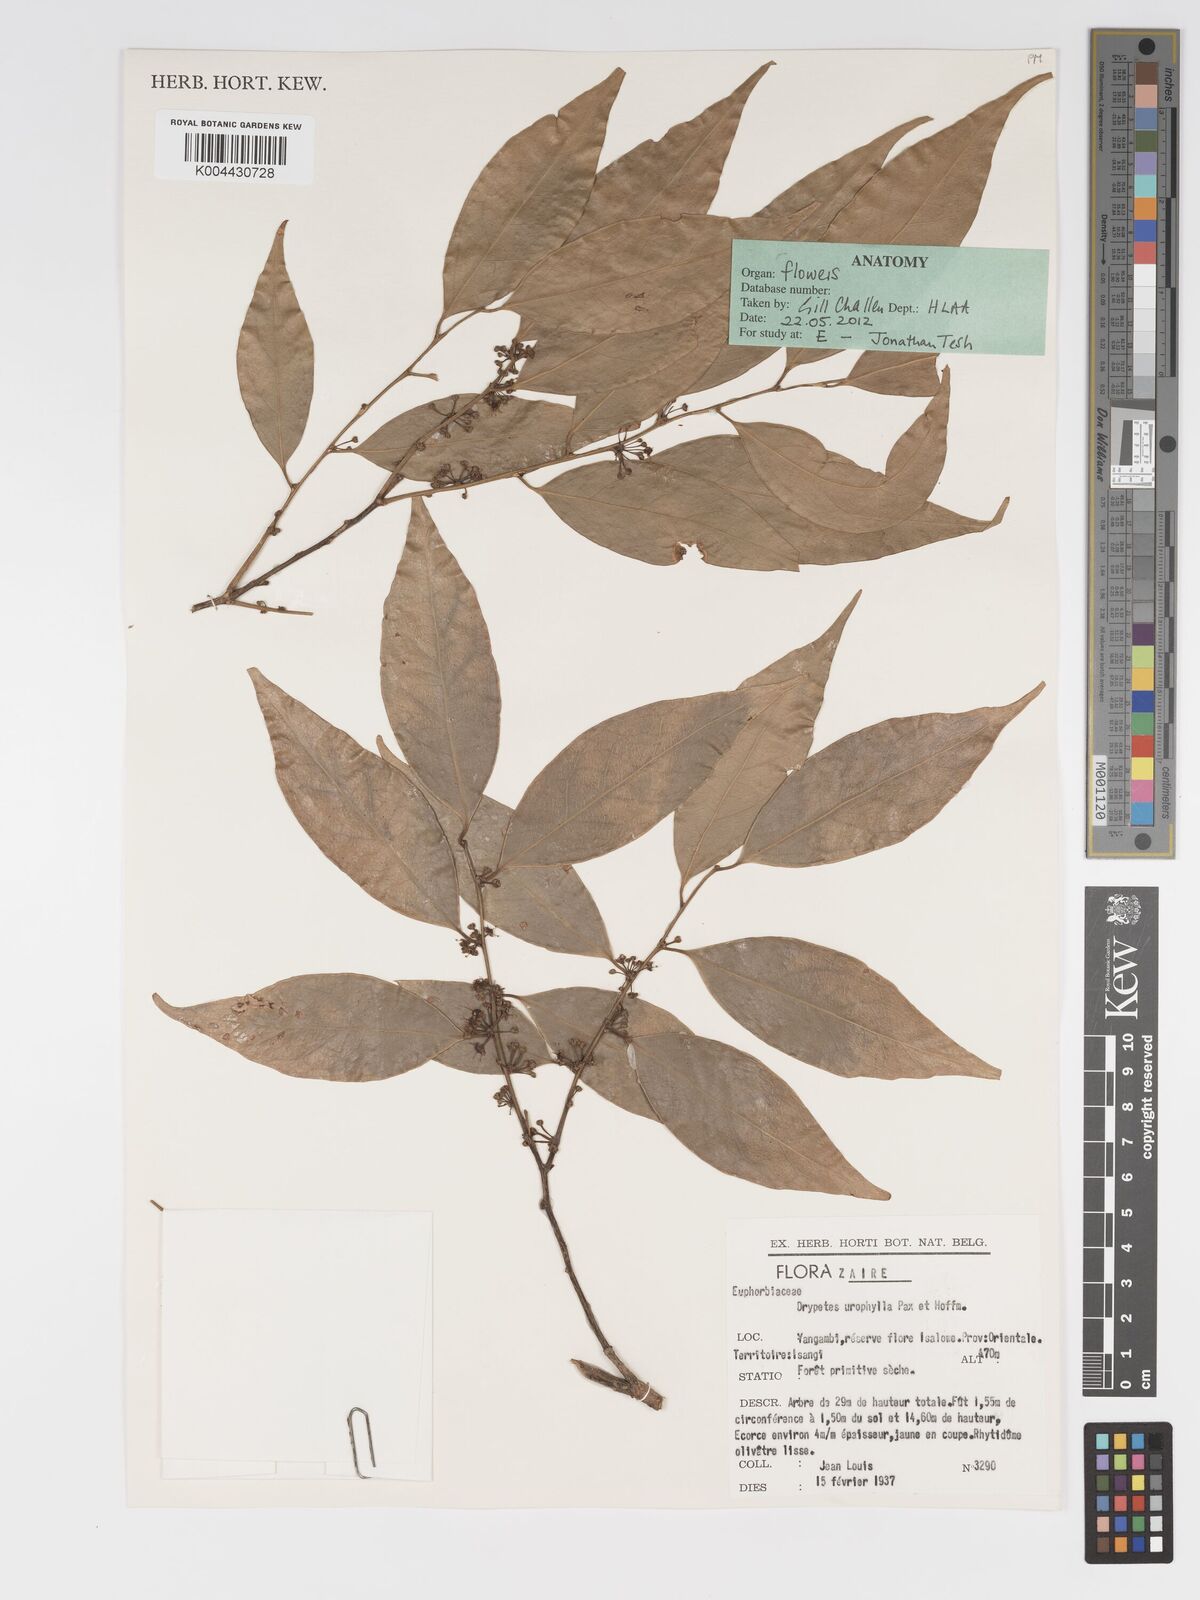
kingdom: Plantae
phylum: Tracheophyta
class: Magnoliopsida
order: Malpighiales
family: Putranjivaceae
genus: Drypetes
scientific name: Drypetes leonensis
